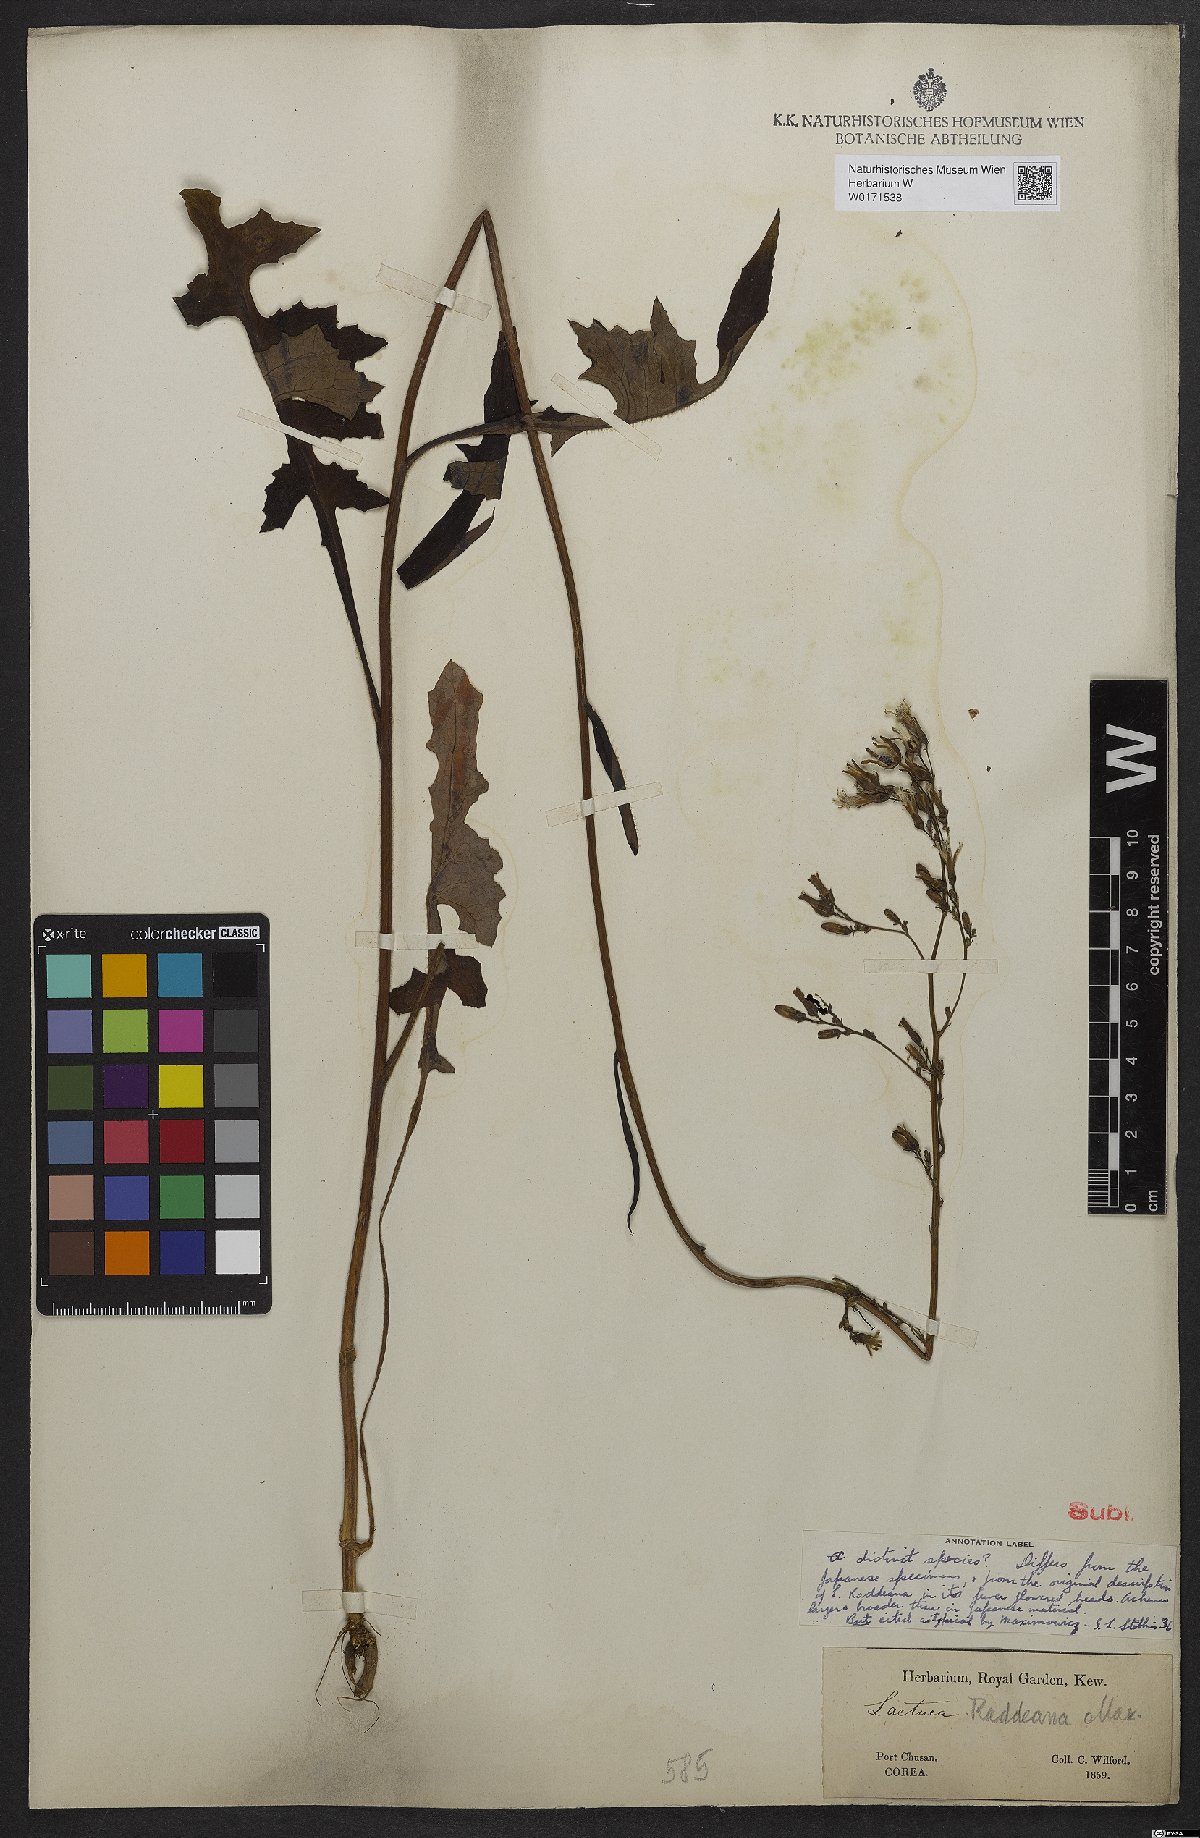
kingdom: Plantae
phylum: Tracheophyta
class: Magnoliopsida
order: Asterales
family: Asteraceae
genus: Lactuca
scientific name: Lactuca raddeana
